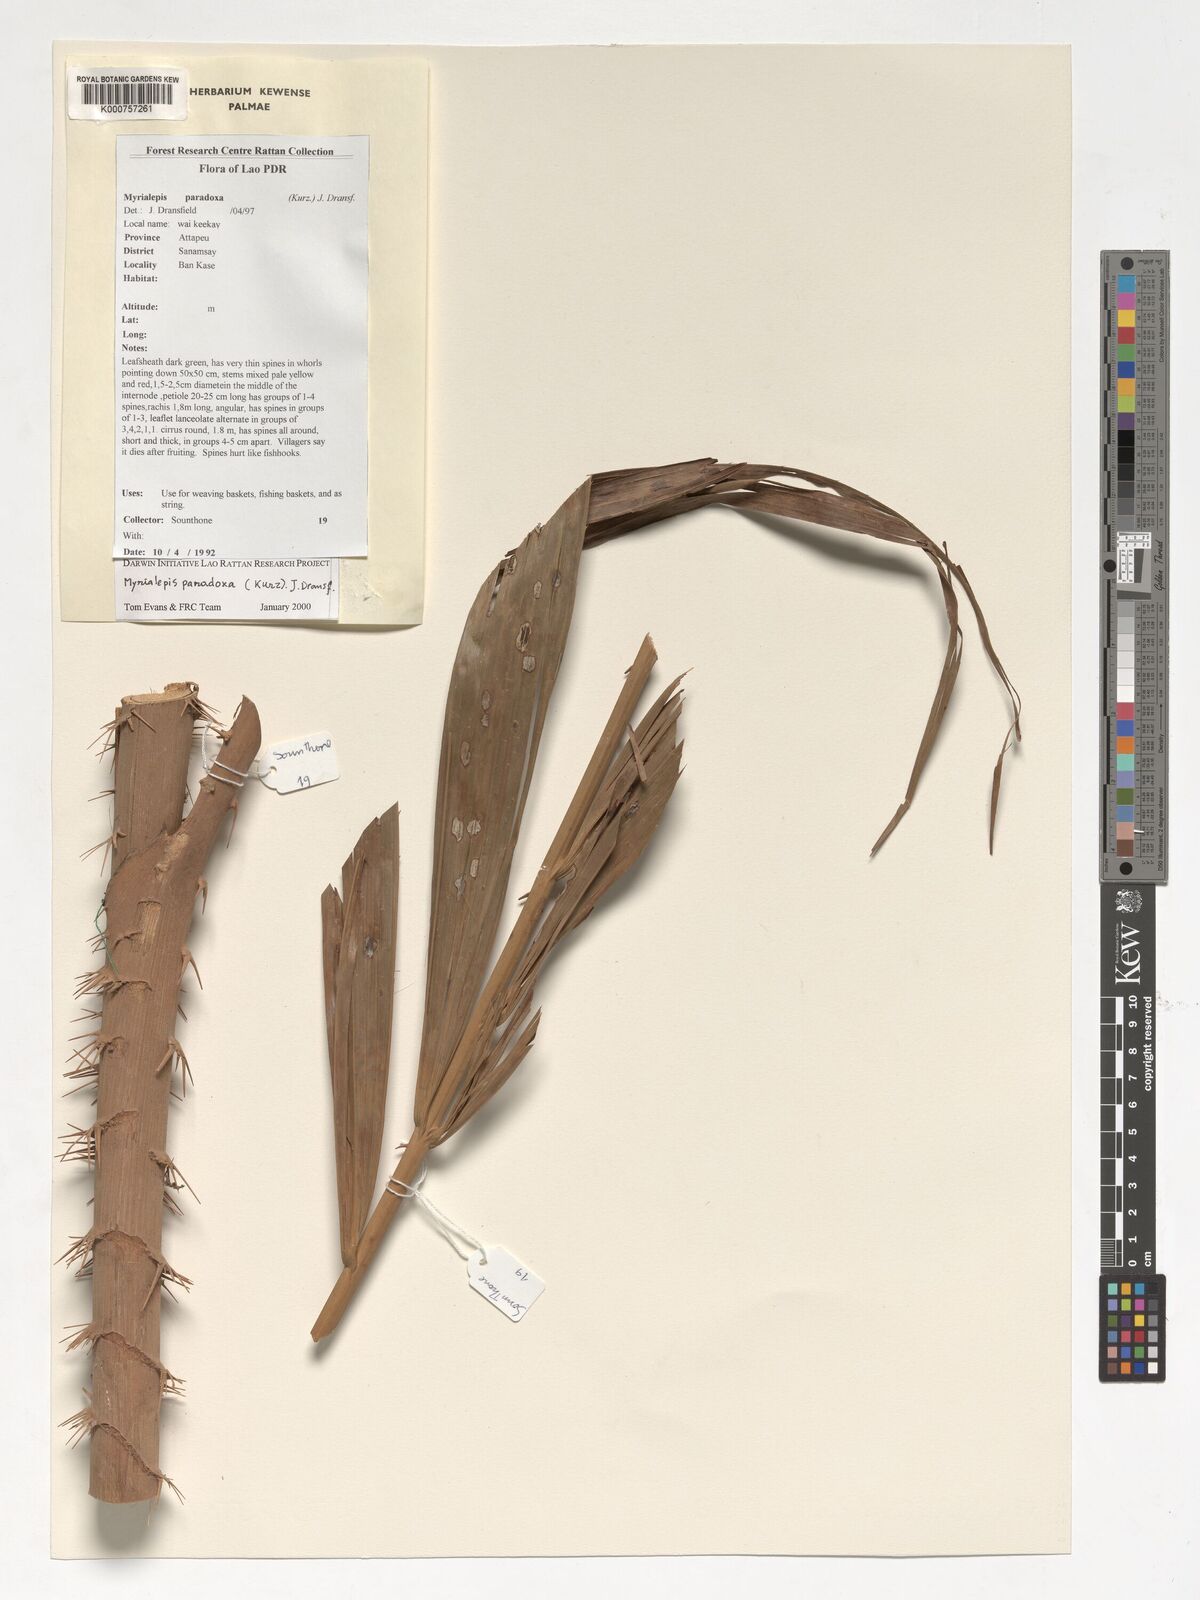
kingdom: Plantae
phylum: Tracheophyta
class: Liliopsida
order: Arecales
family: Arecaceae
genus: Myrialepis
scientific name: Myrialepis paradoxa
